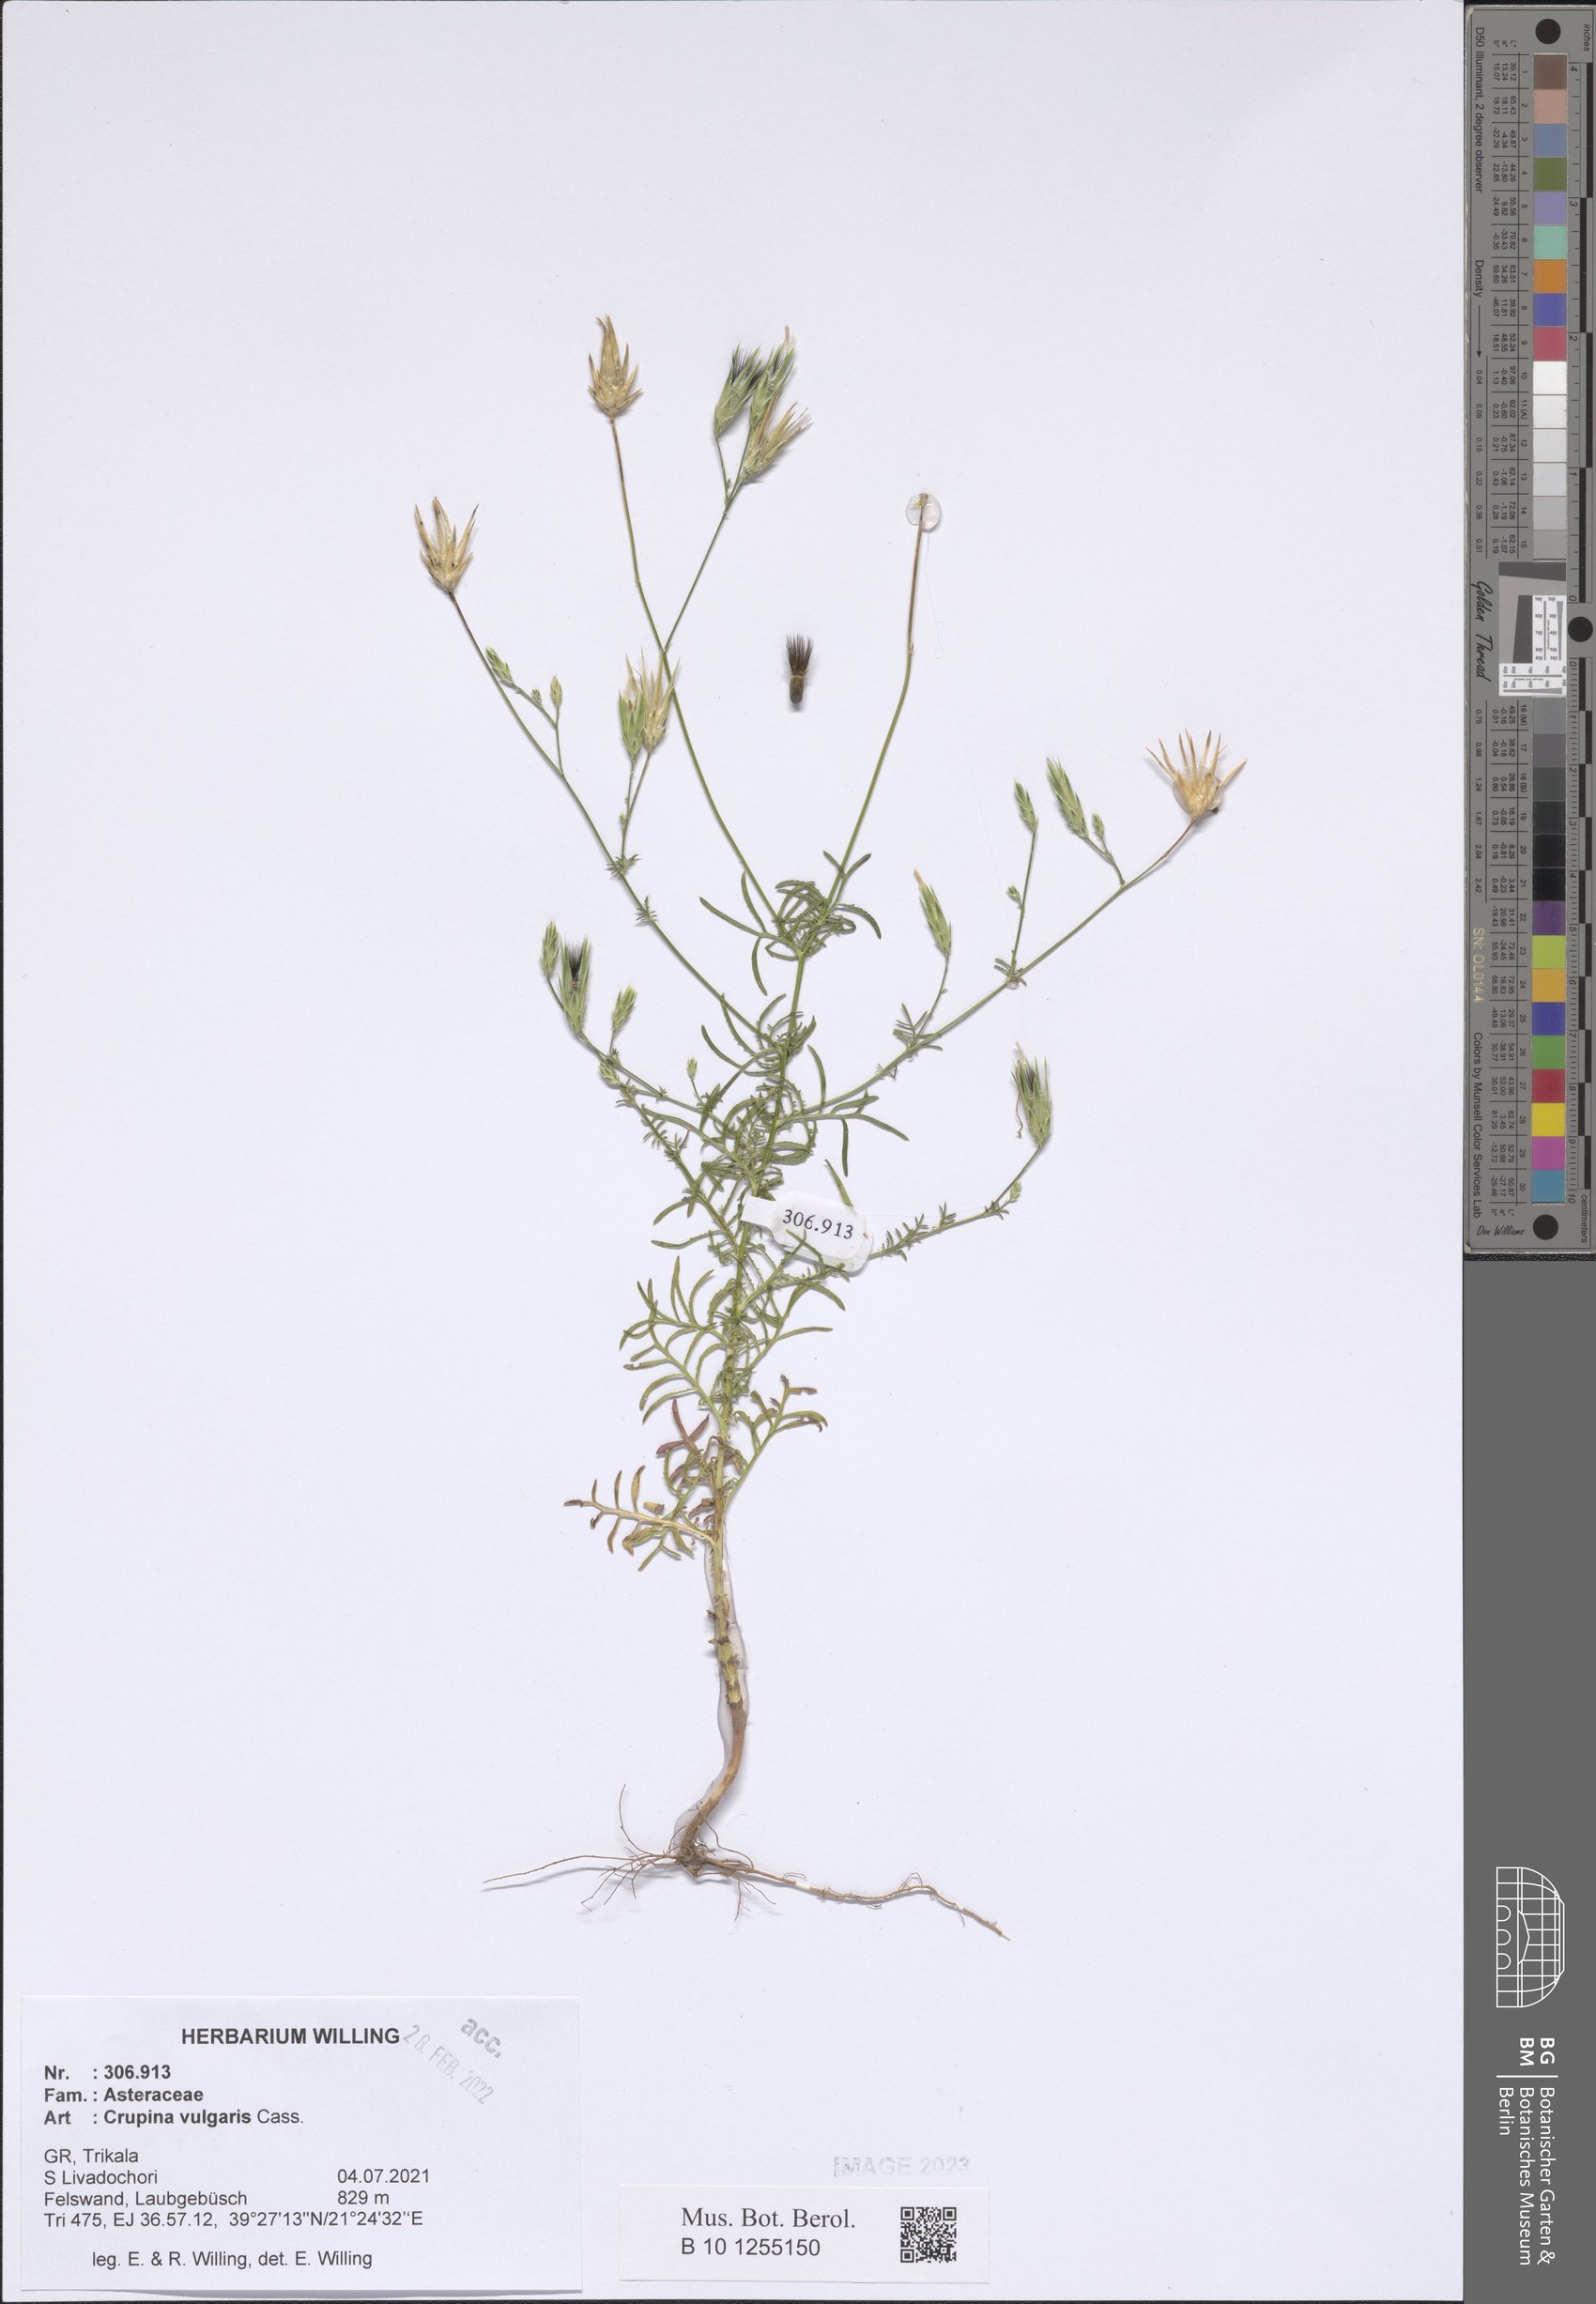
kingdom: Plantae
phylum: Tracheophyta
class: Magnoliopsida
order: Asterales
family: Asteraceae
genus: Crupina
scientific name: Crupina vulgaris
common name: Common crupina
